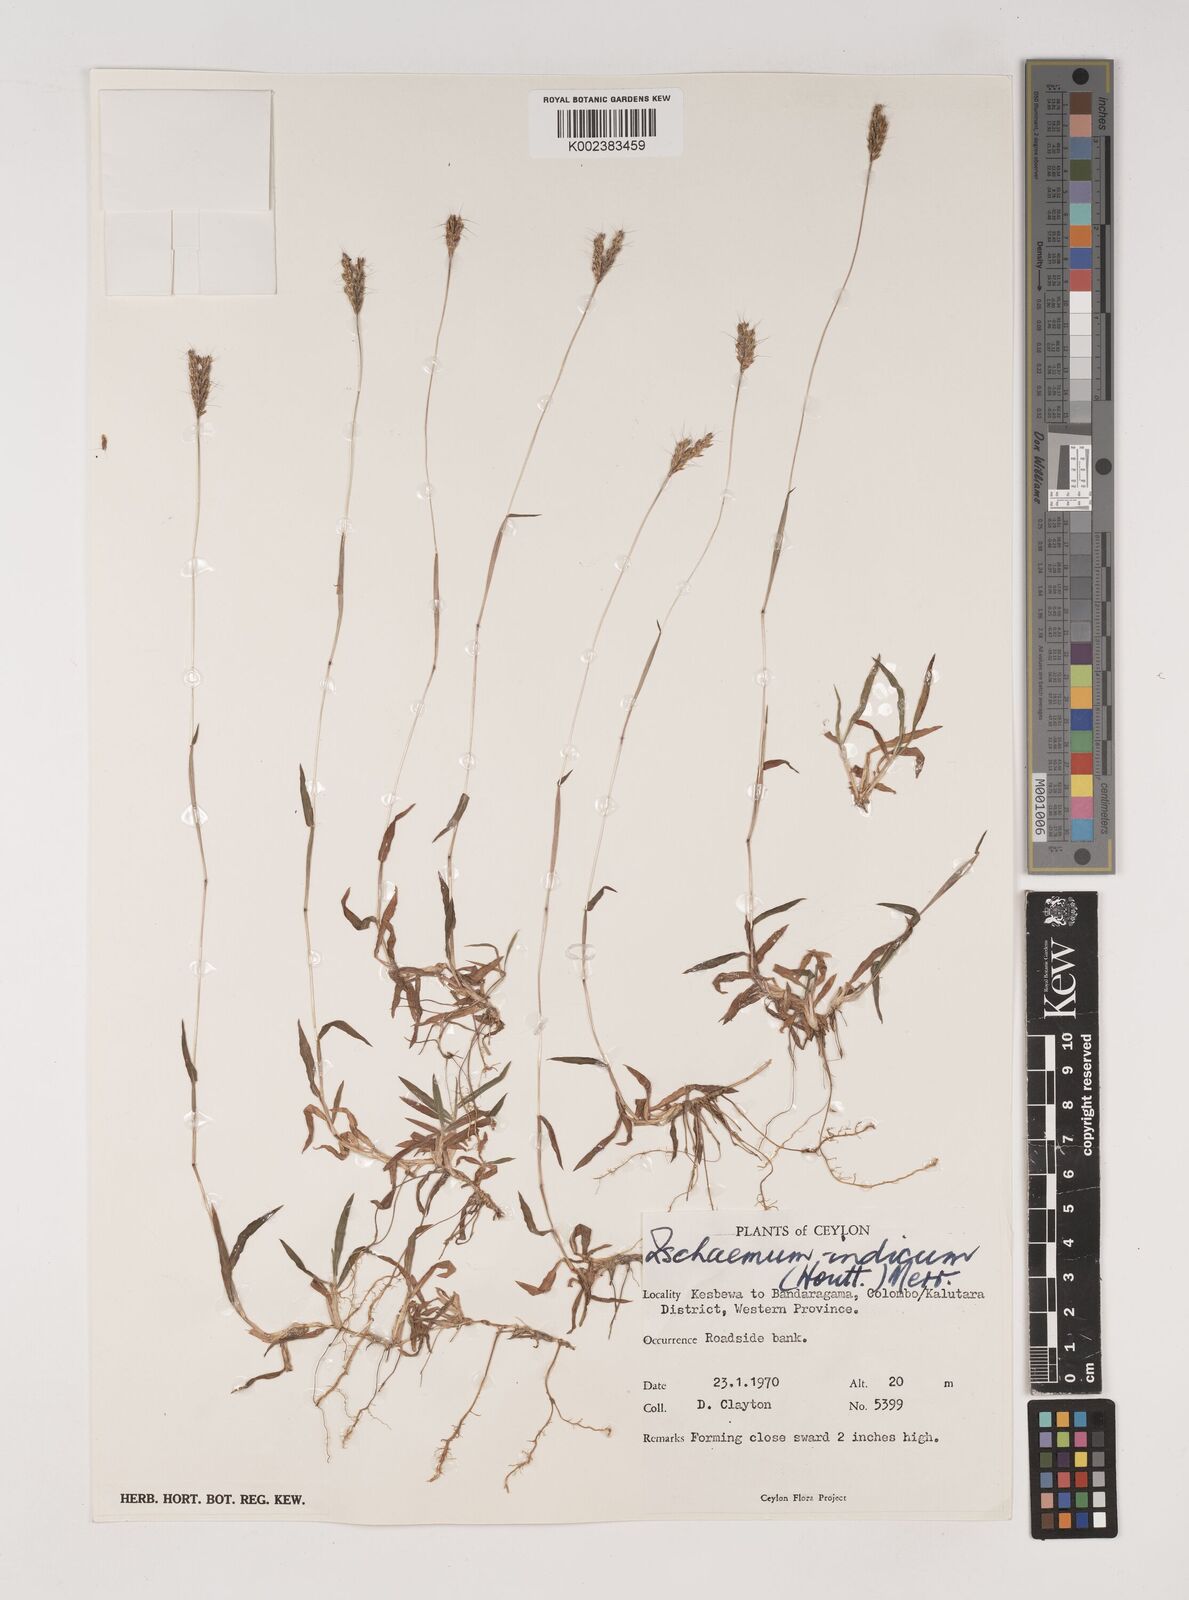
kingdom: Plantae
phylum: Tracheophyta
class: Liliopsida
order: Poales
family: Poaceae
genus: Polytrias
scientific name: Polytrias indica
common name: Indian murainagrass
